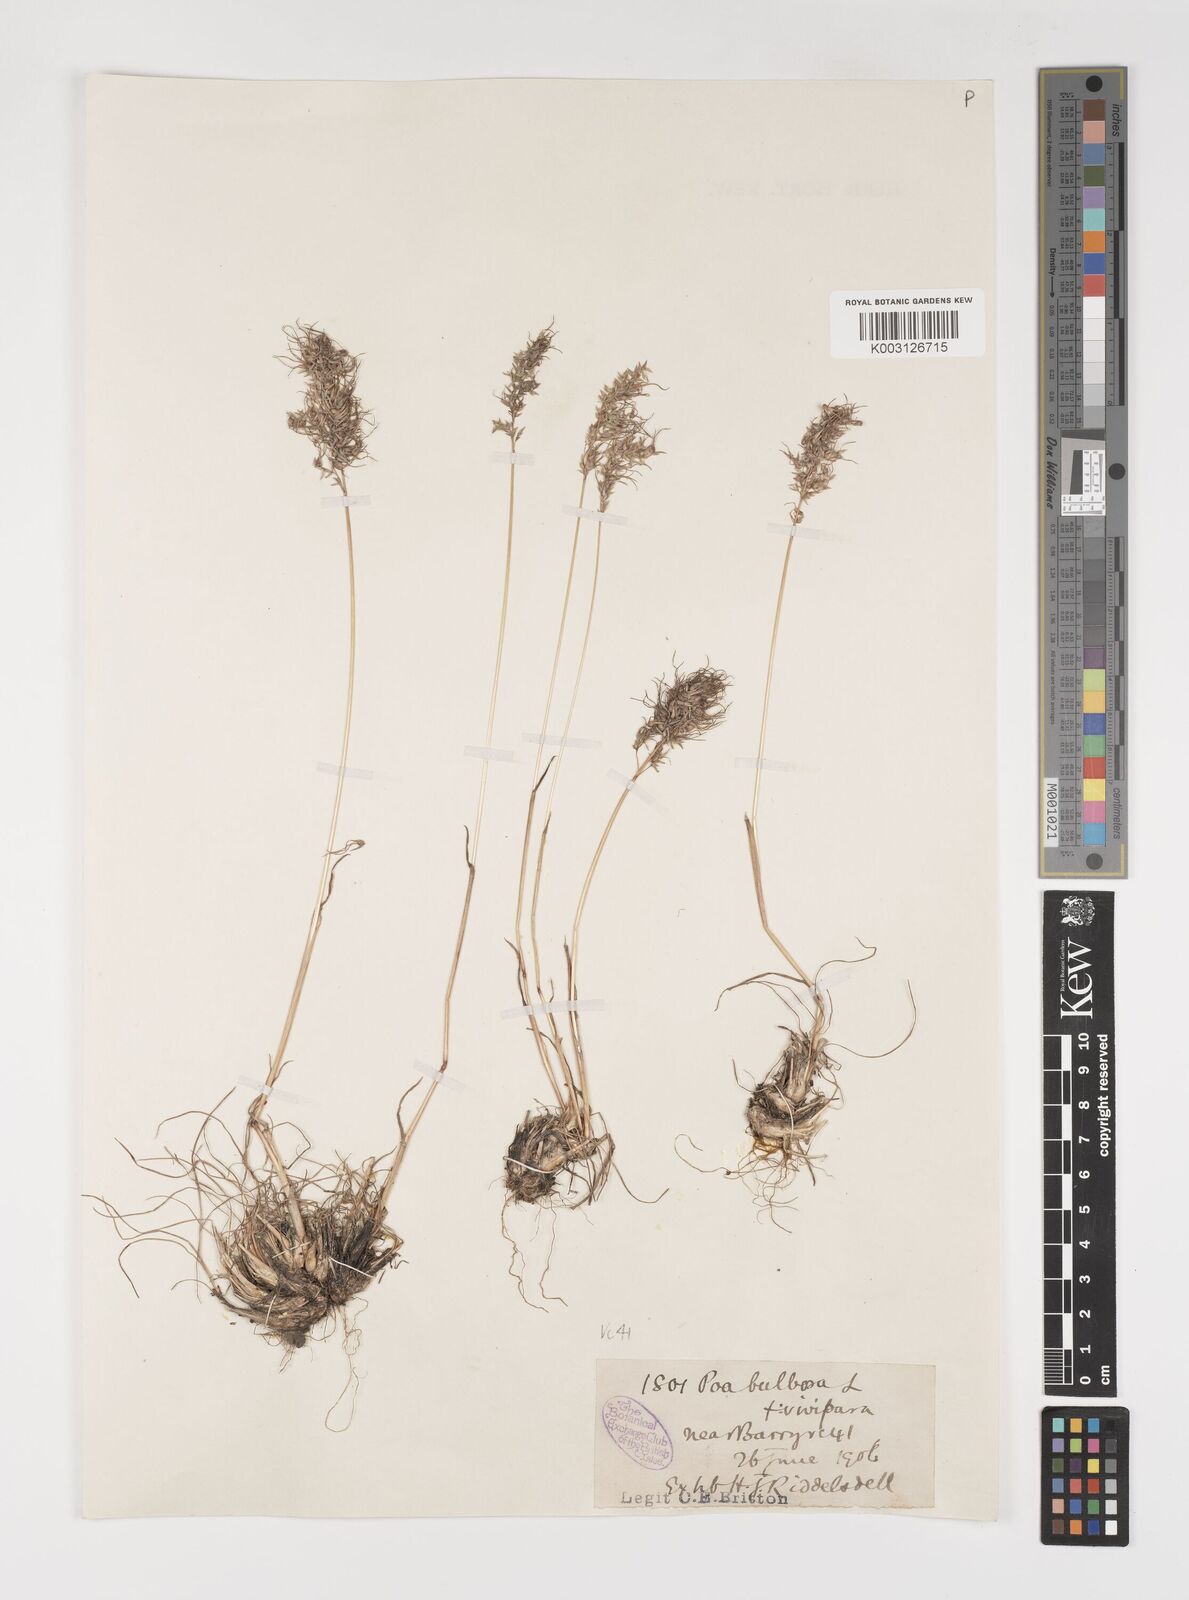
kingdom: Plantae
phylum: Tracheophyta
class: Liliopsida
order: Poales
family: Poaceae
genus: Poa
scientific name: Poa bulbosa
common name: Bulbous bluegrass
